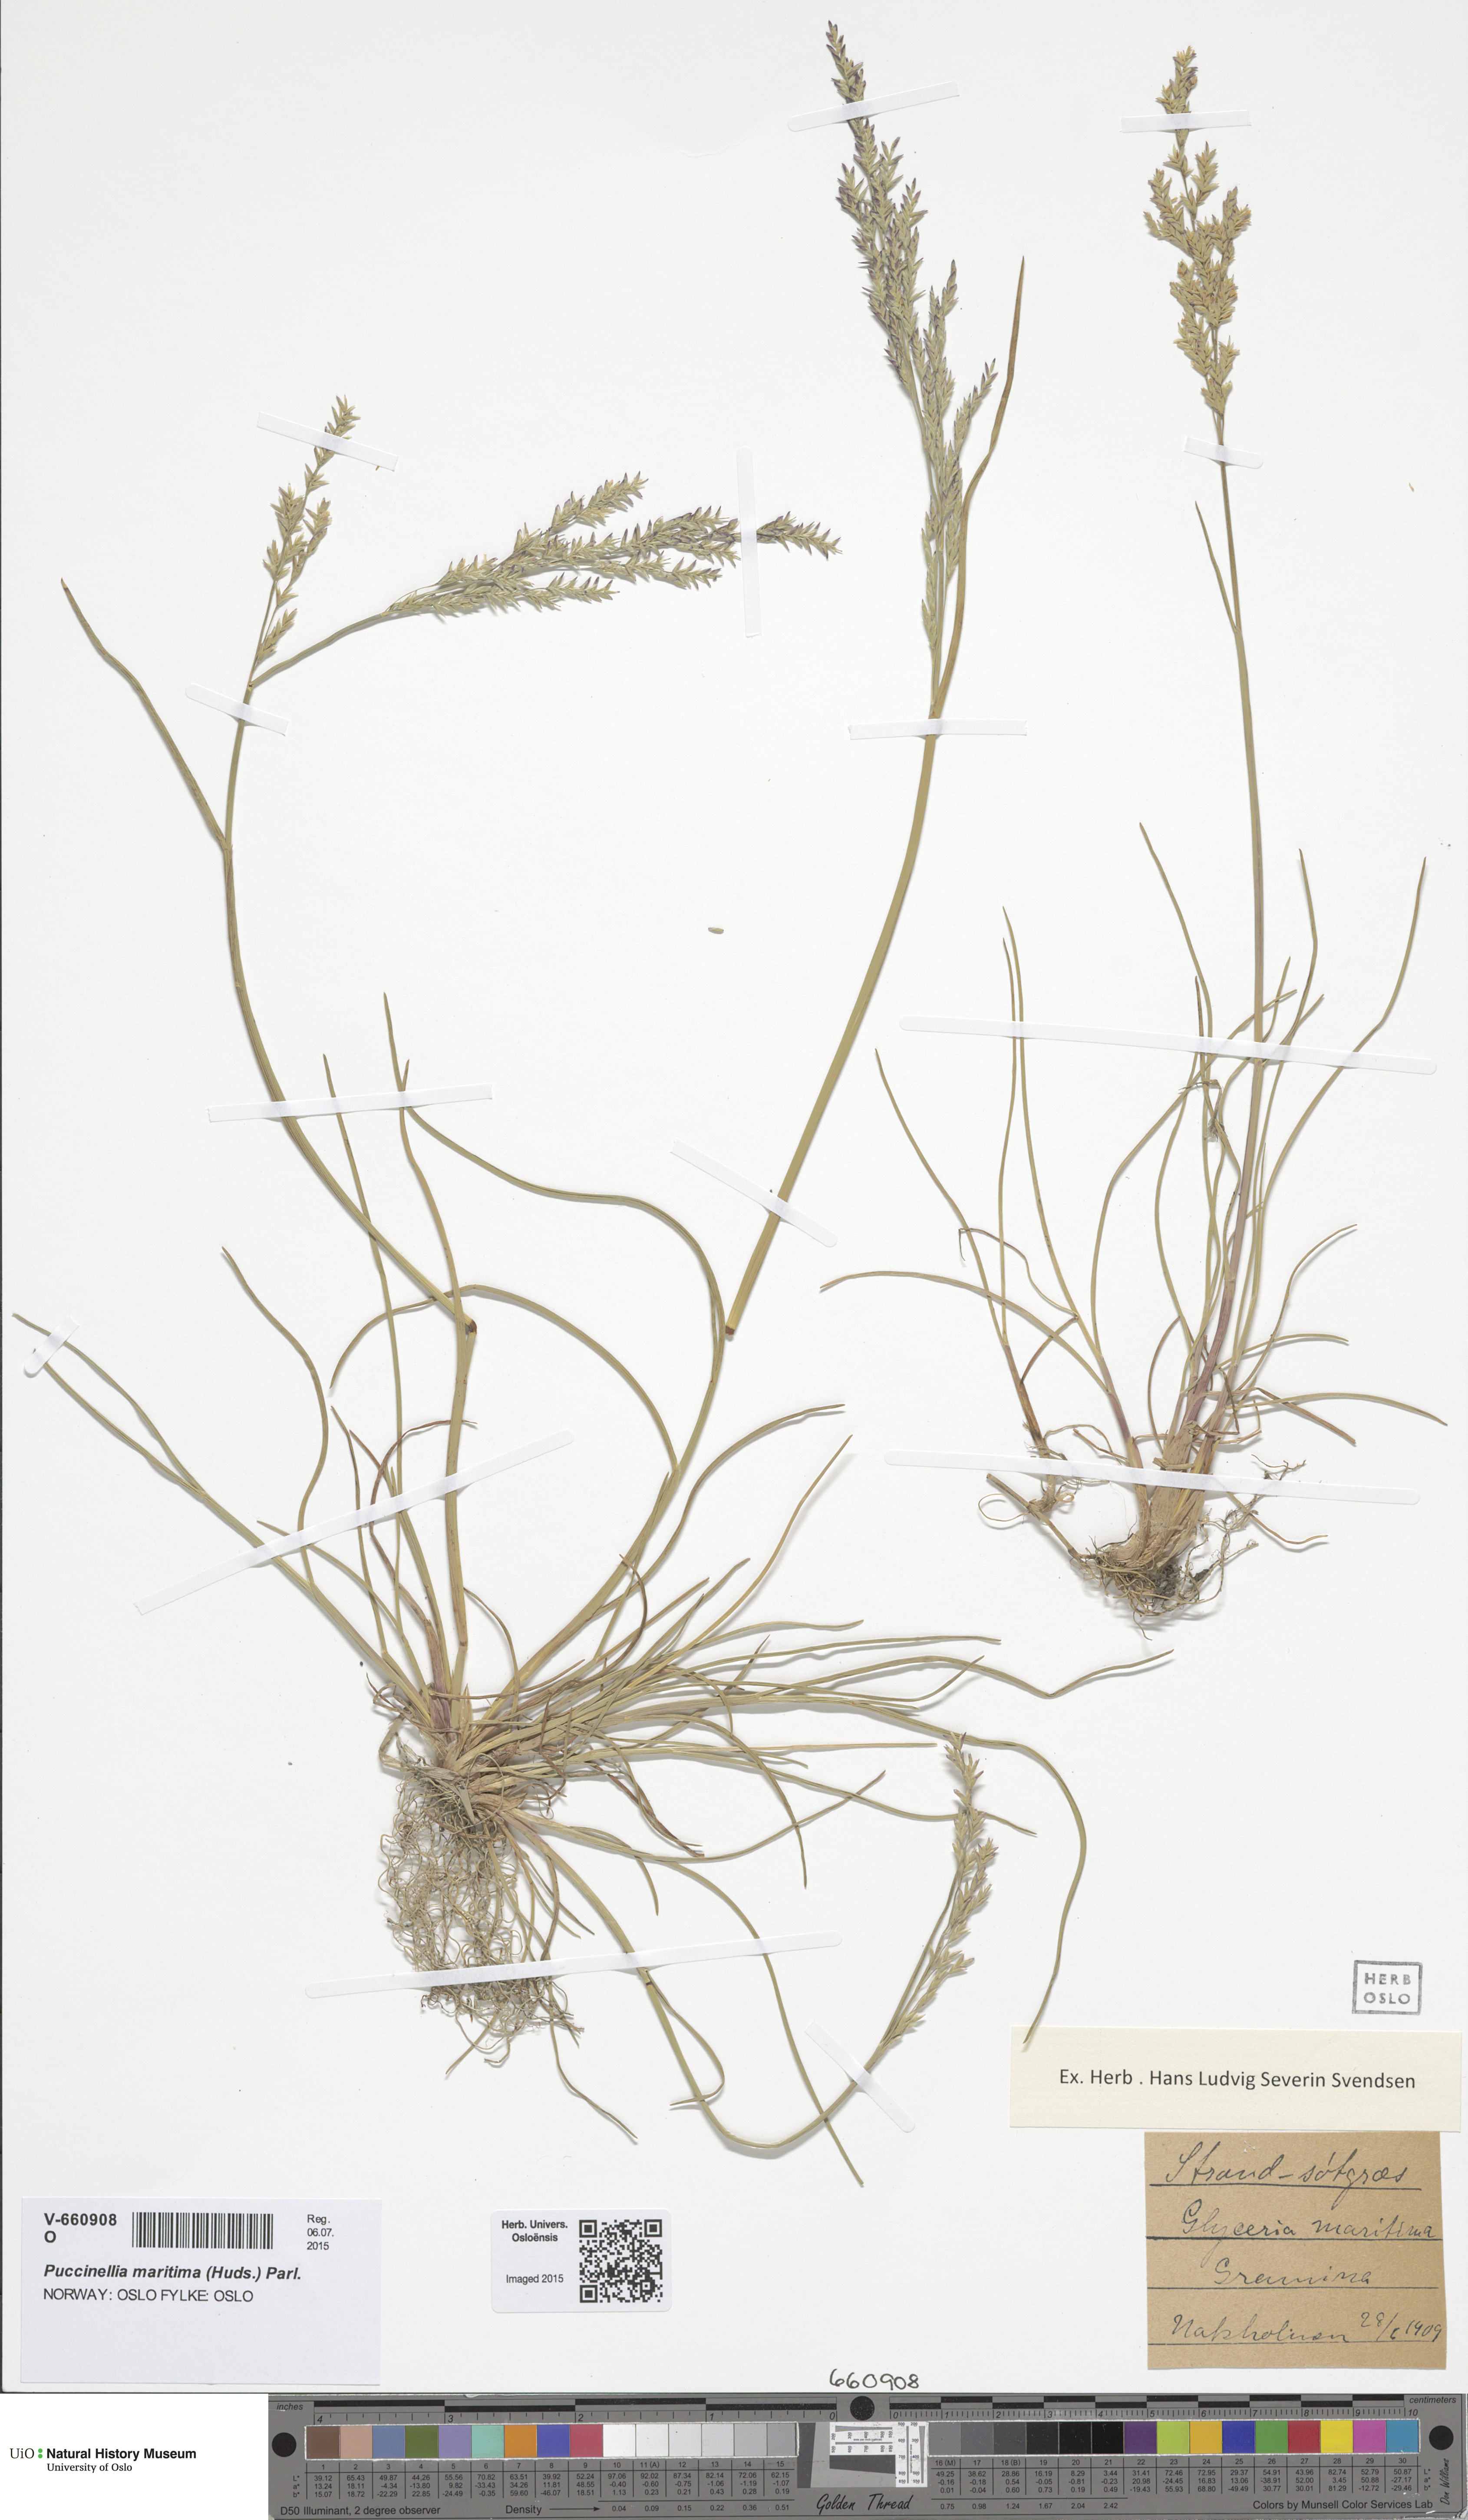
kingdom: Plantae
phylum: Tracheophyta
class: Liliopsida
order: Poales
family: Poaceae
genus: Puccinellia
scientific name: Puccinellia maritima
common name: Common saltmarsh grass
